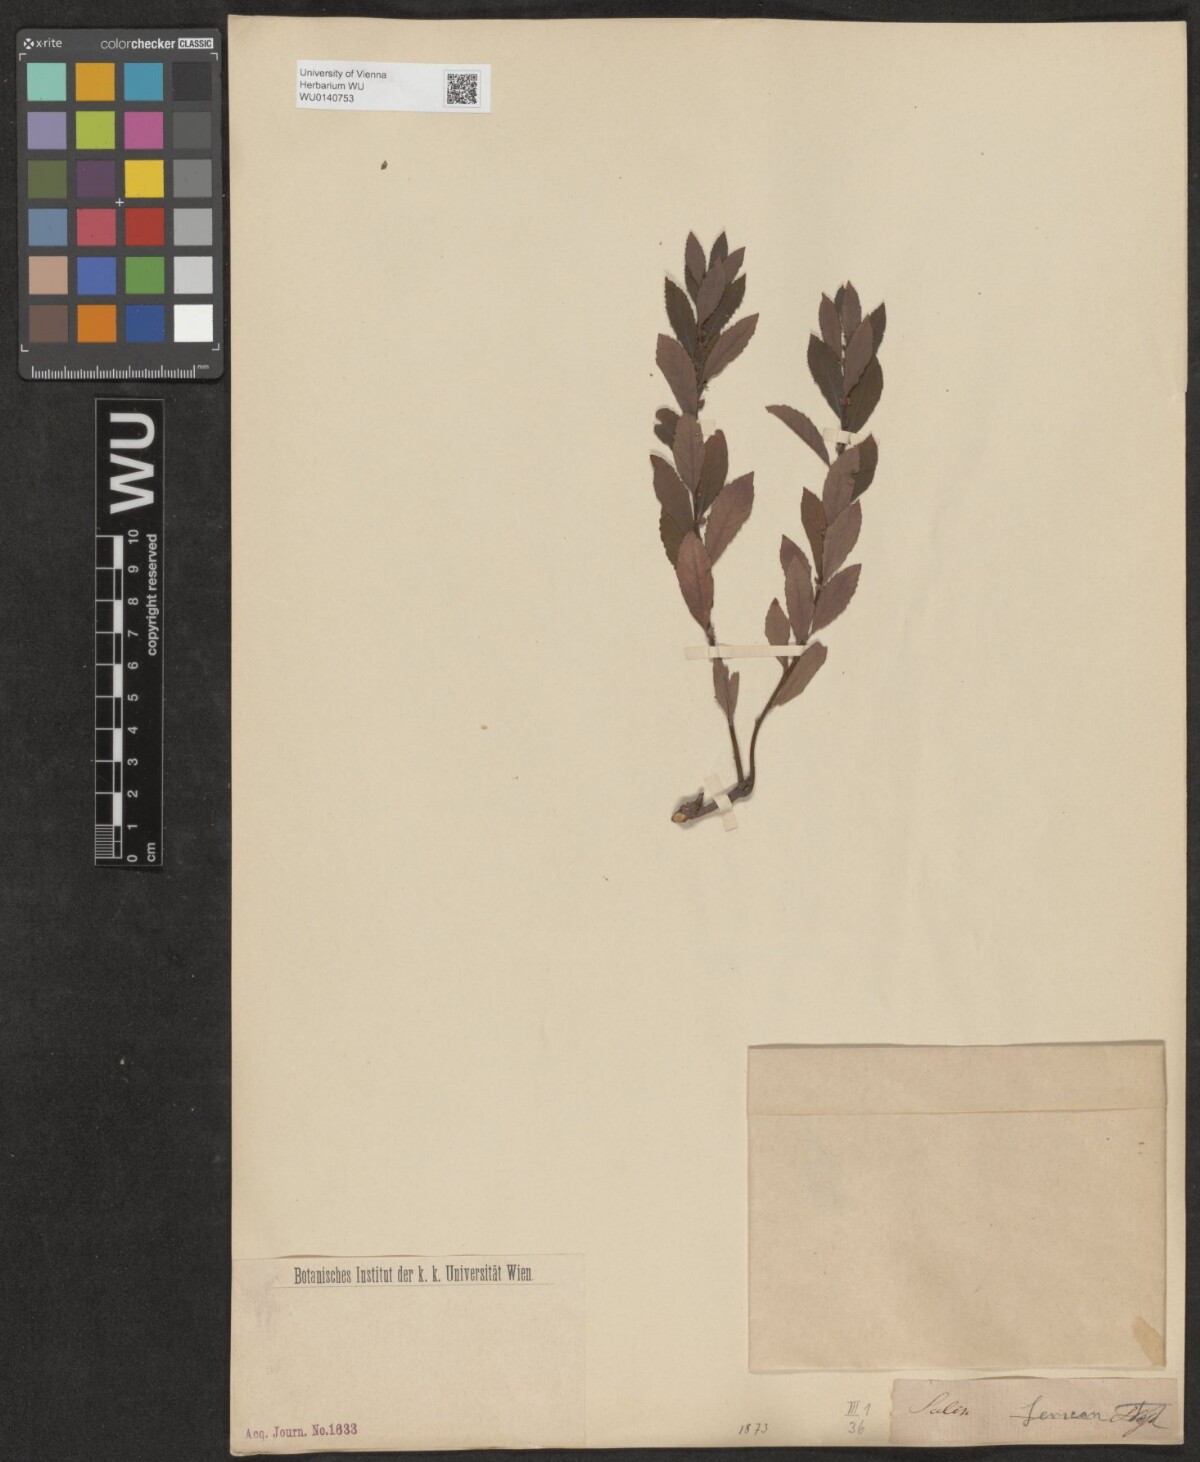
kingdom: Plantae
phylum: Tracheophyta
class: Magnoliopsida
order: Malpighiales
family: Salicaceae
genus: Salix
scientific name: Salix
